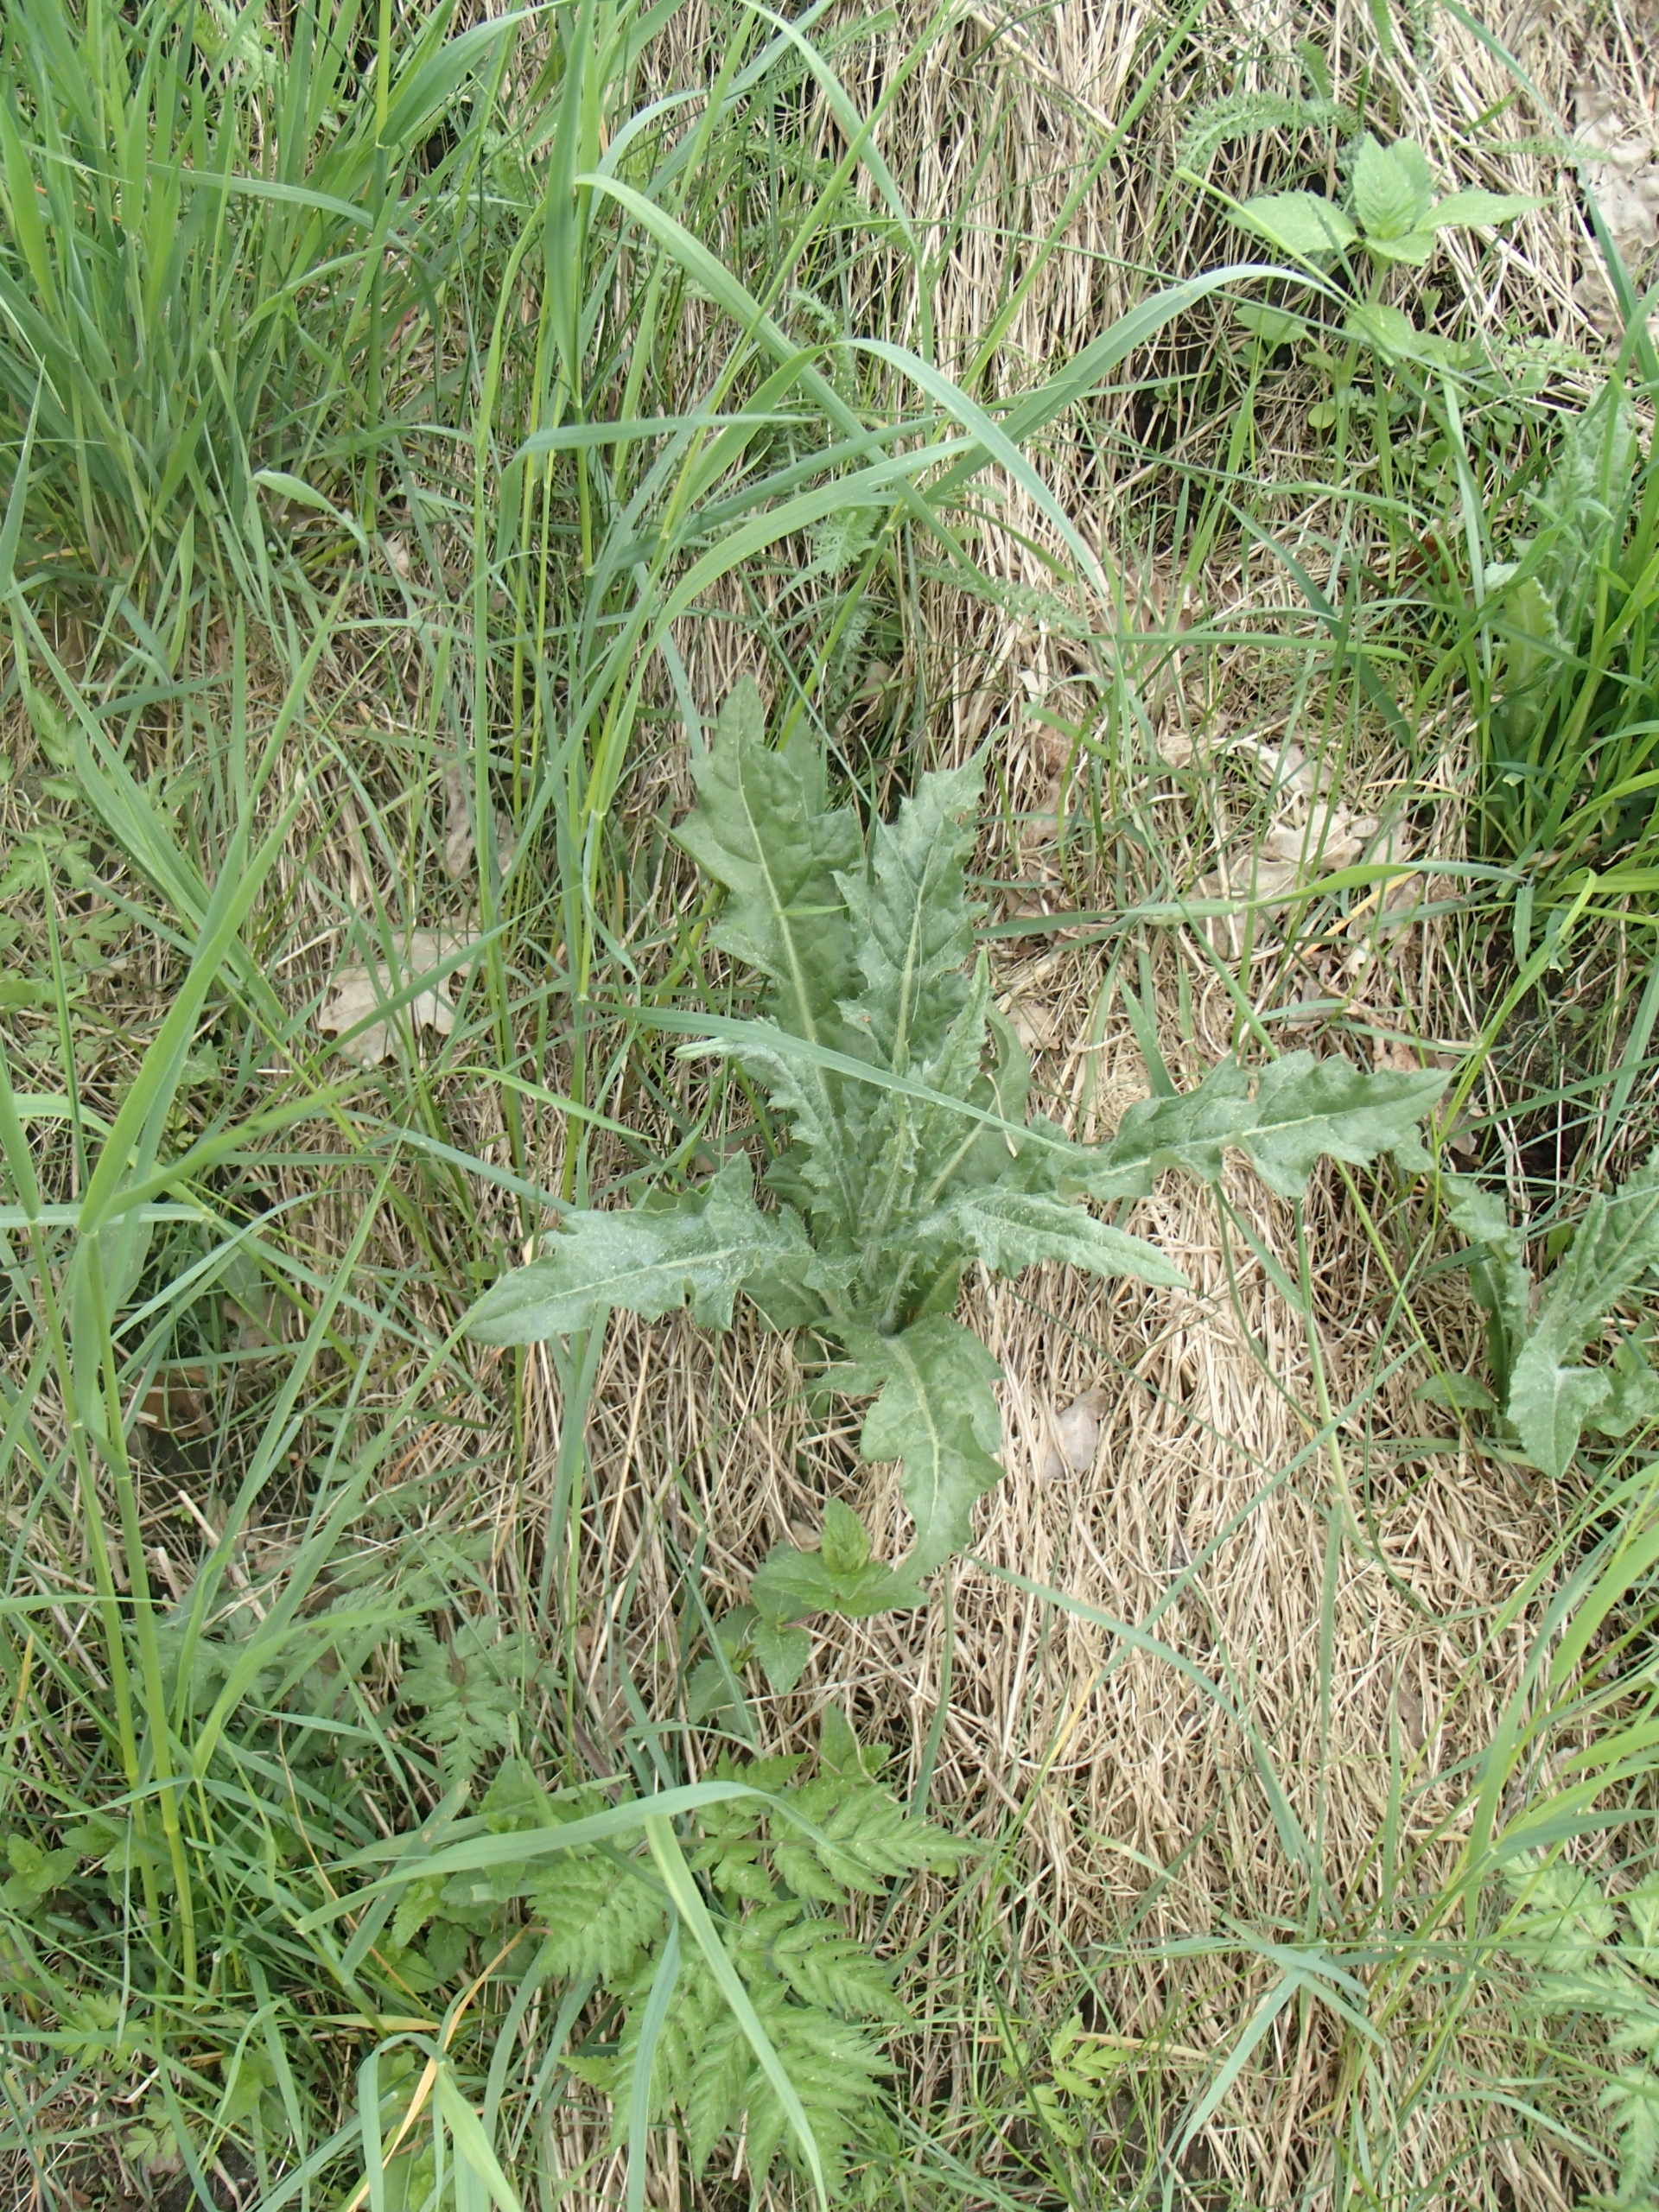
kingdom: Plantae
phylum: Tracheophyta
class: Magnoliopsida
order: Asterales
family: Asteraceae
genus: Cirsium
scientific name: Cirsium arvense
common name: Ager-tidsel
